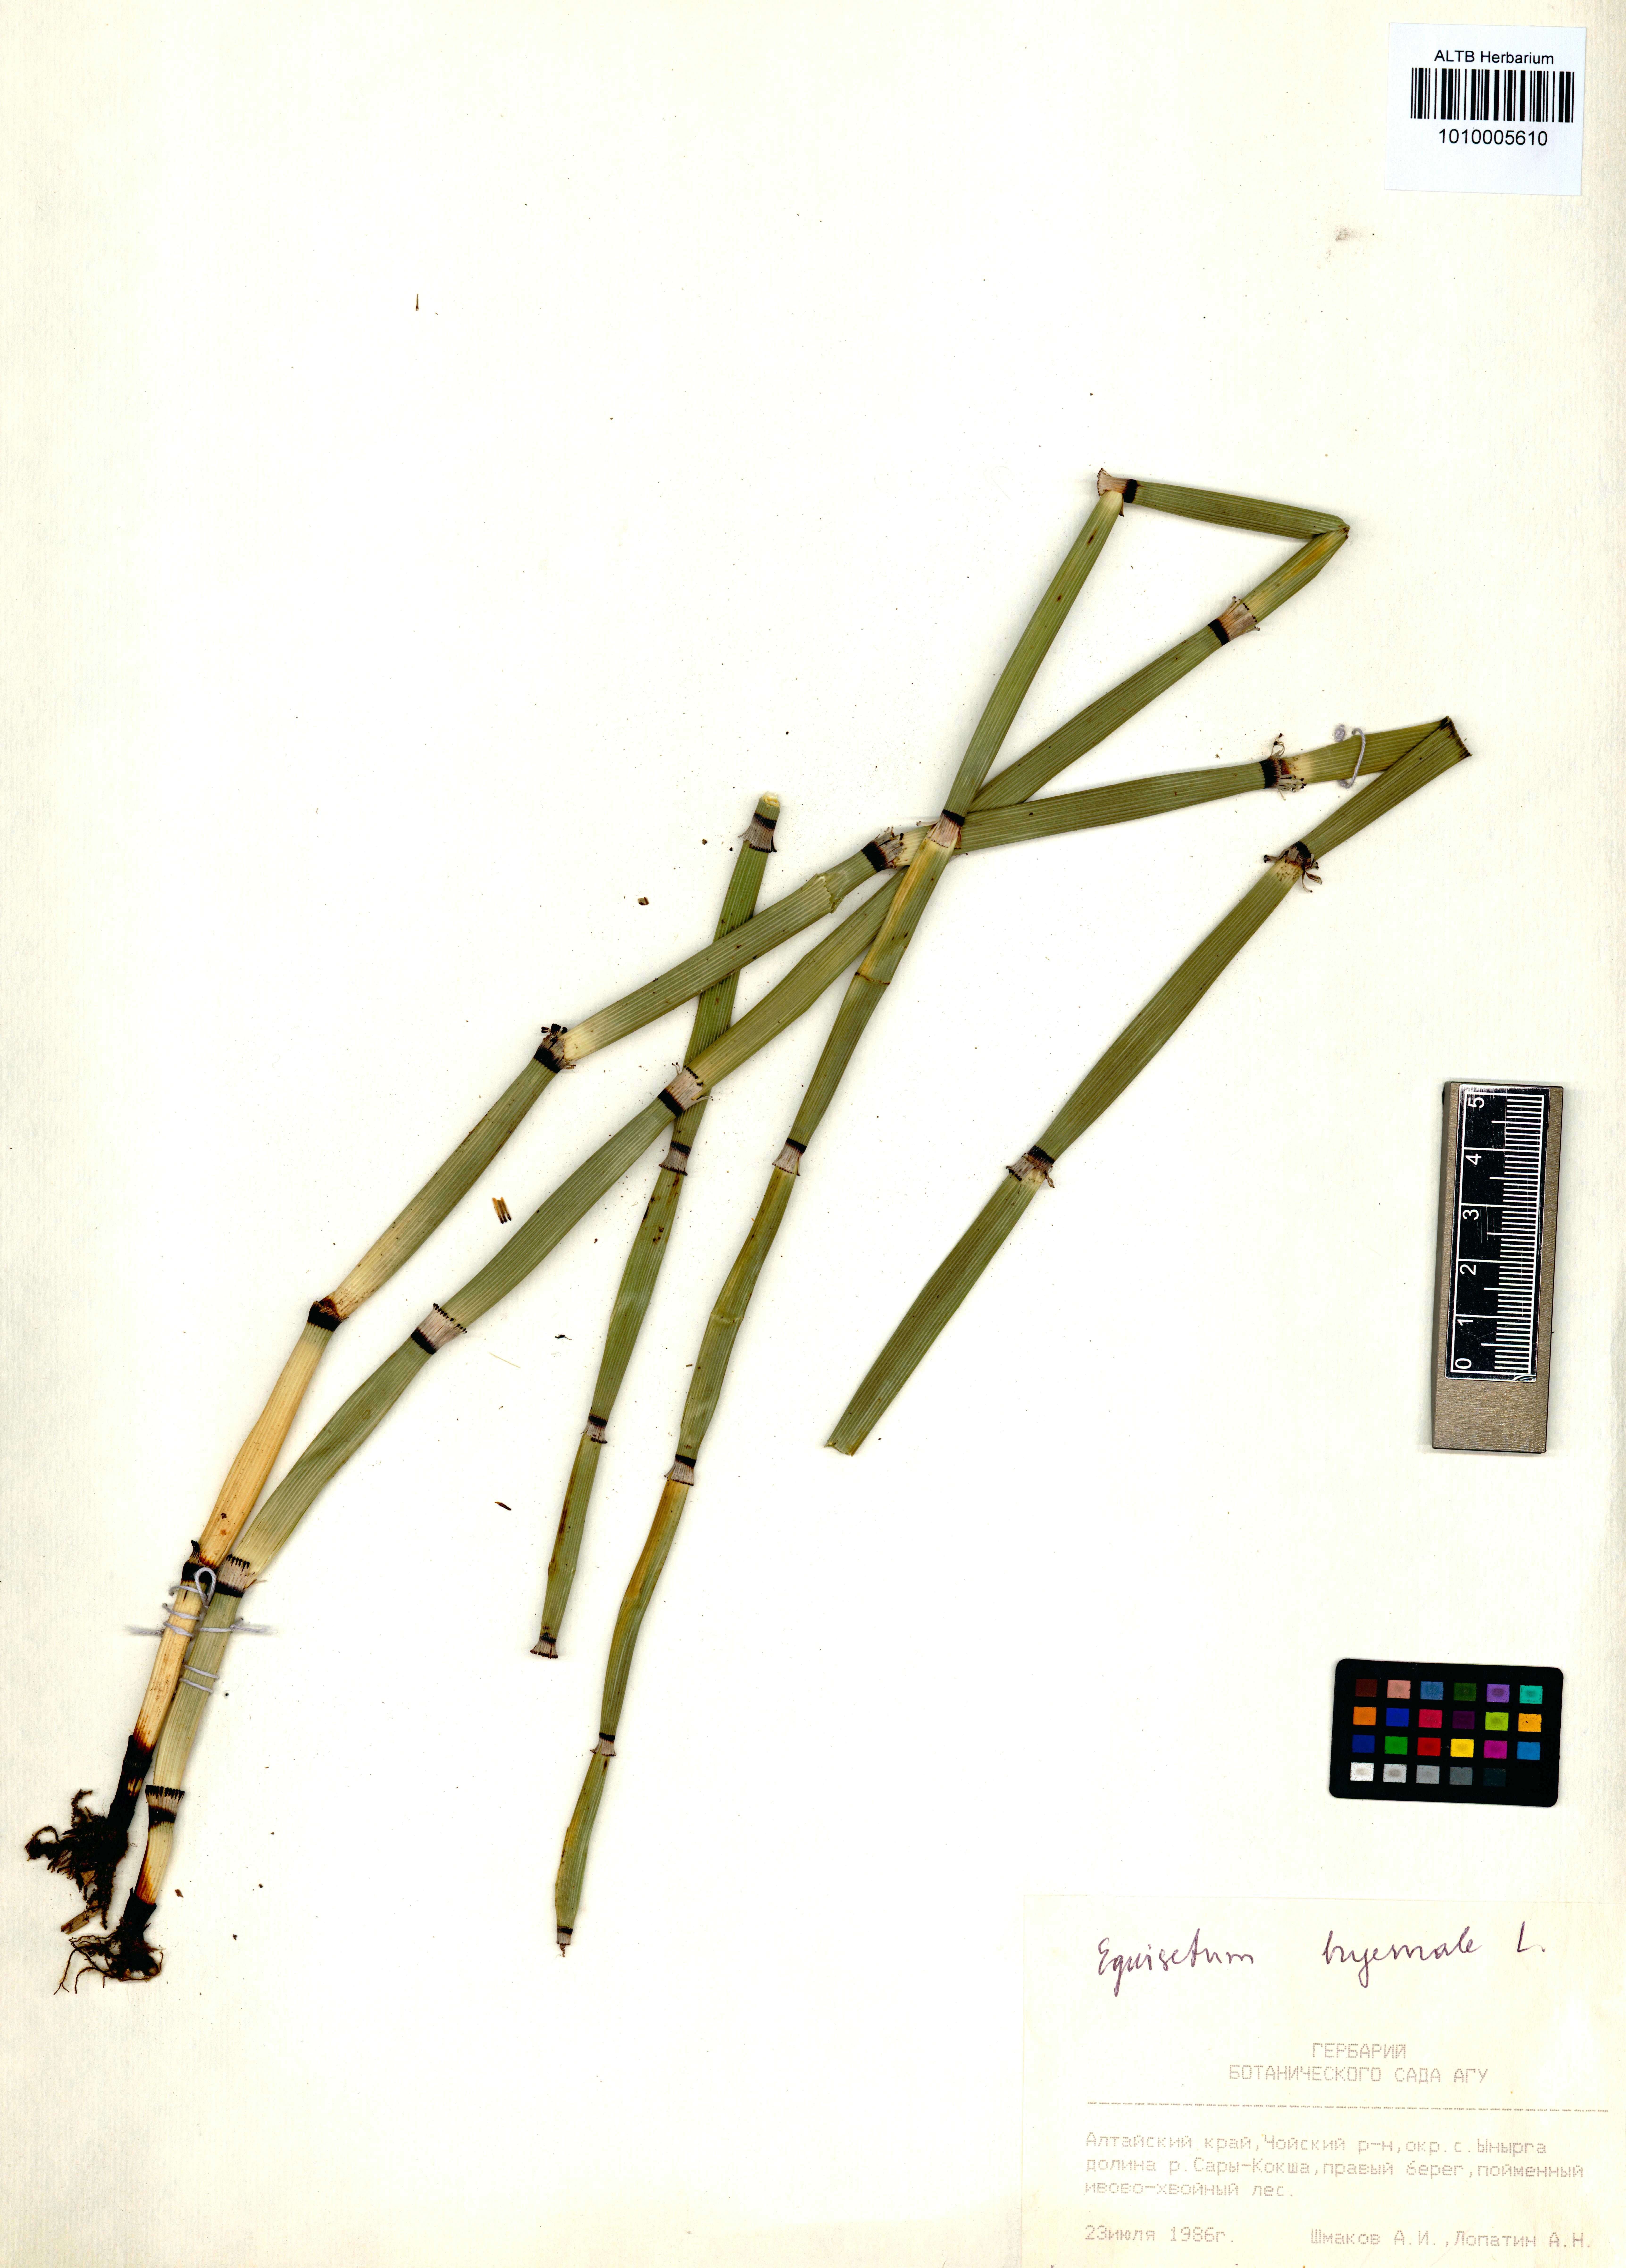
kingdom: Plantae
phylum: Tracheophyta
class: Polypodiopsida
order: Equisetales
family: Equisetaceae
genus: Equisetum
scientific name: Equisetum hyemale
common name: Rough horsetail
